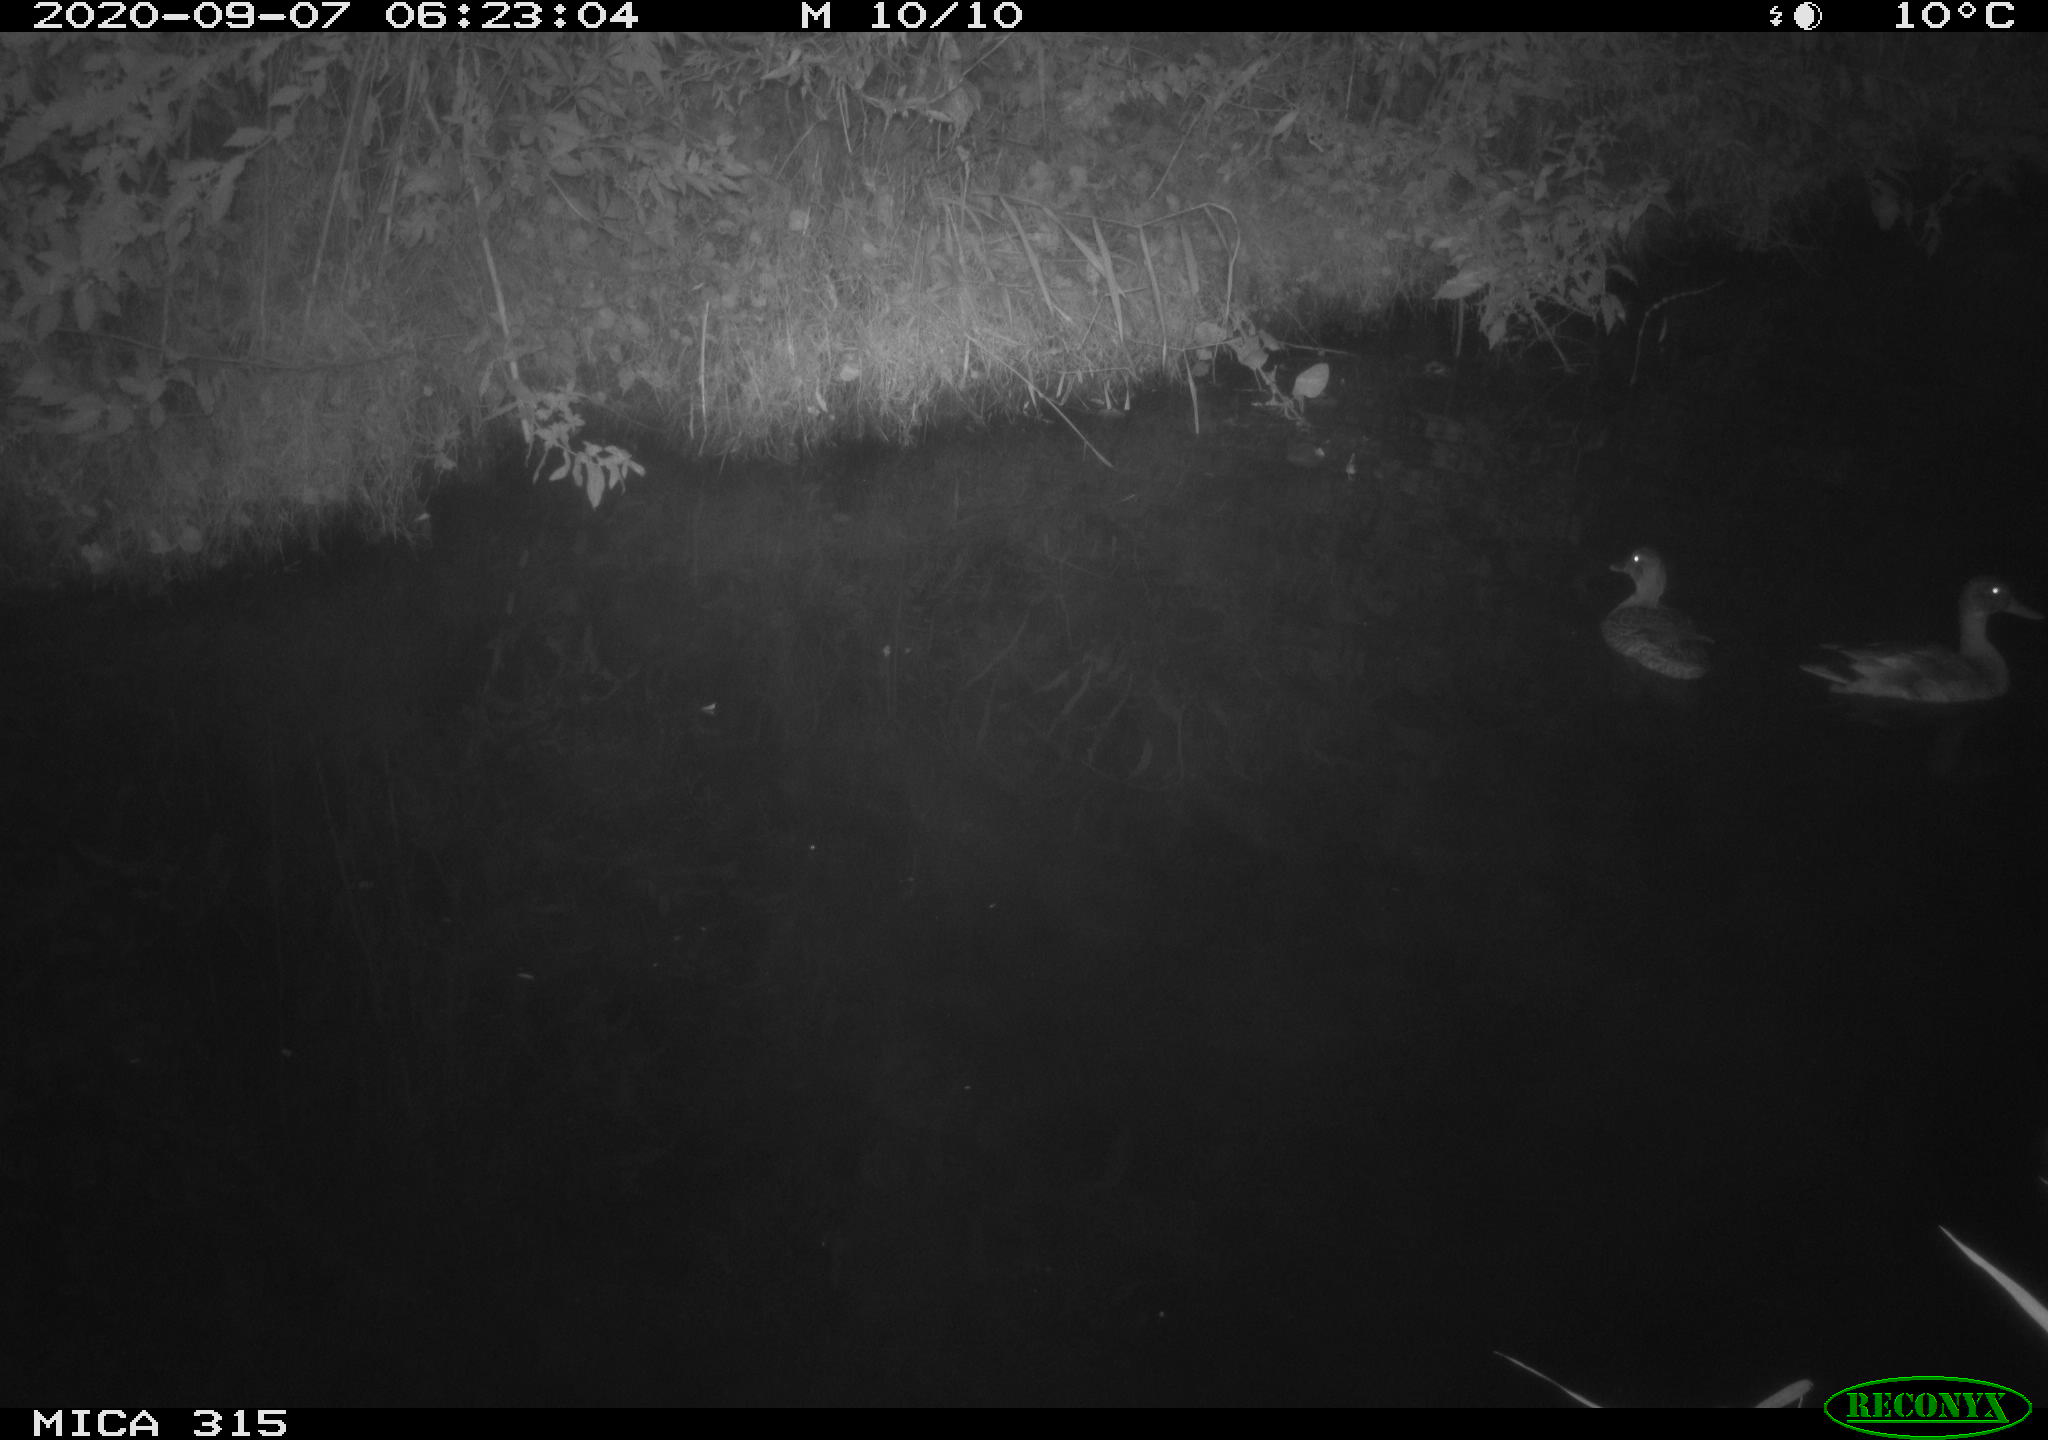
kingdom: Animalia
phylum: Chordata
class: Aves
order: Anseriformes
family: Anatidae
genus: Anas
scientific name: Anas platyrhynchos
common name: Mallard
